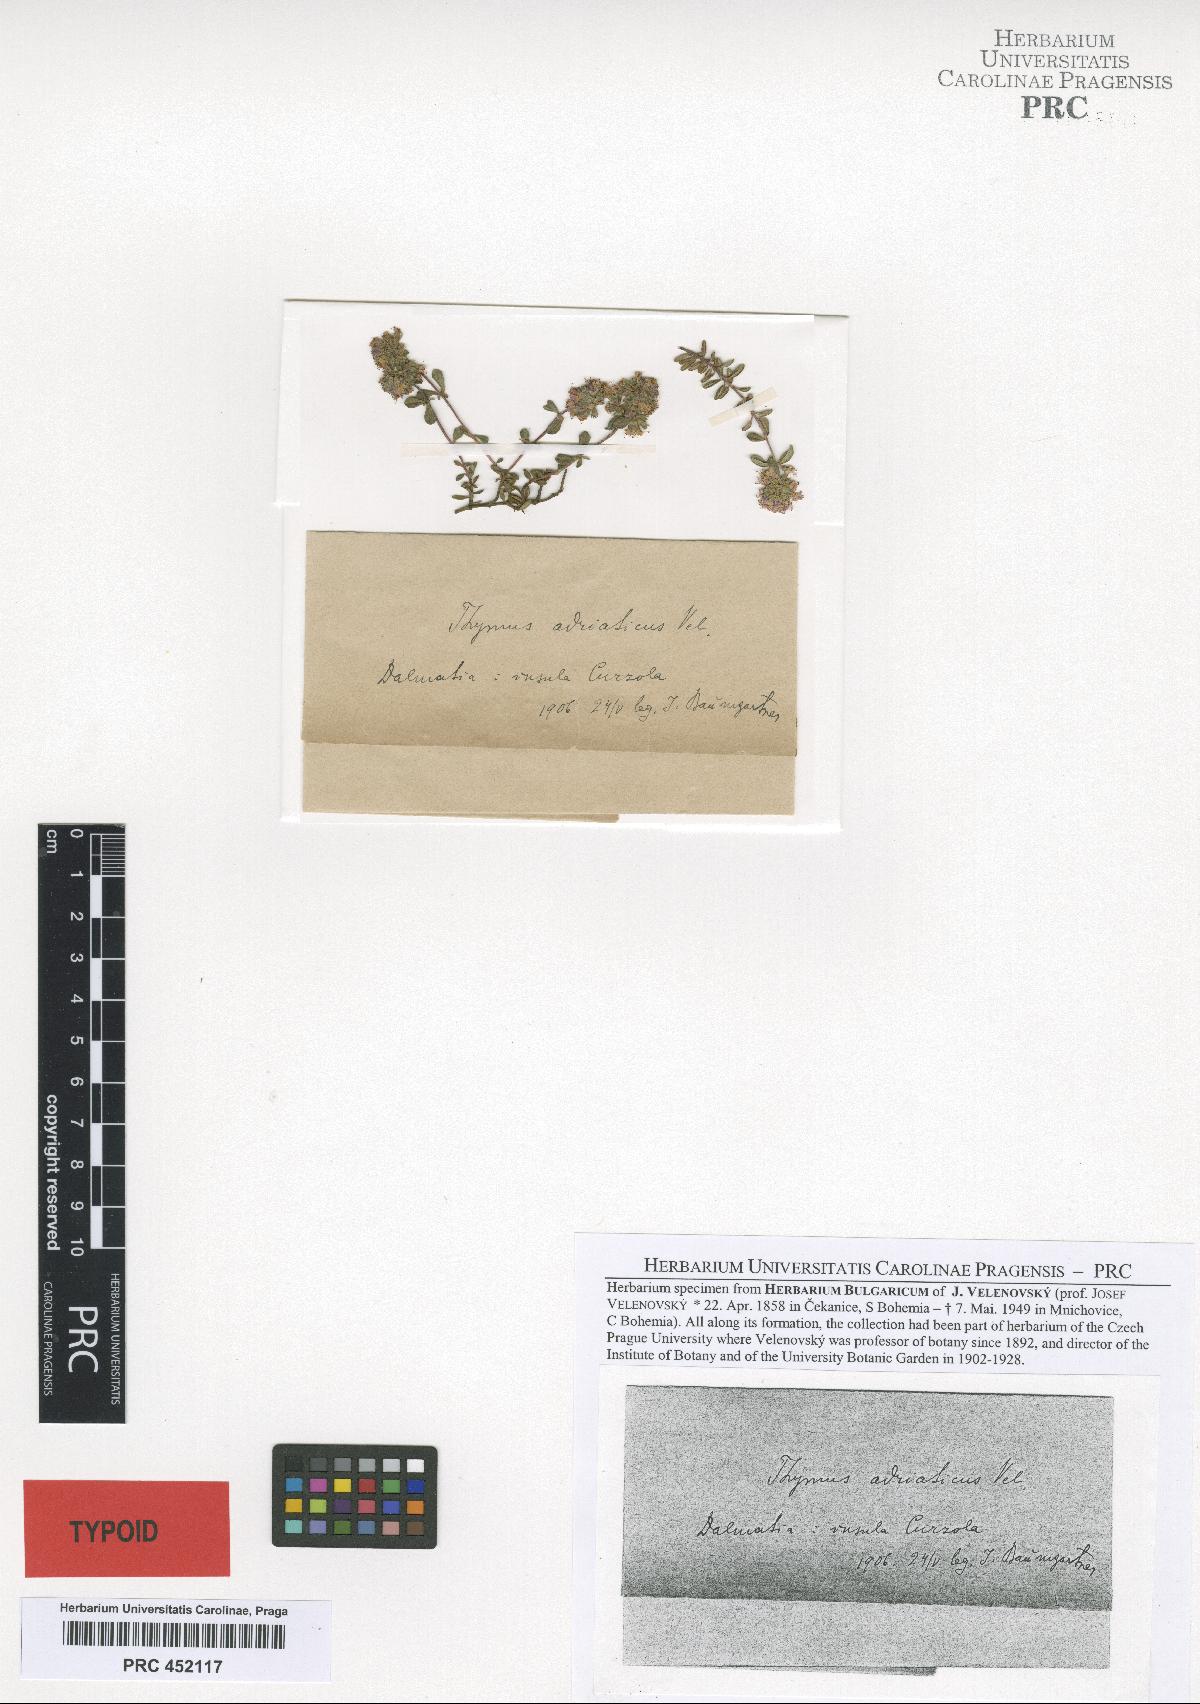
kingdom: Plantae
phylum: Tracheophyta
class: Magnoliopsida
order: Lamiales
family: Lamiaceae
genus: Thymus
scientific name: Thymus longicaulis
